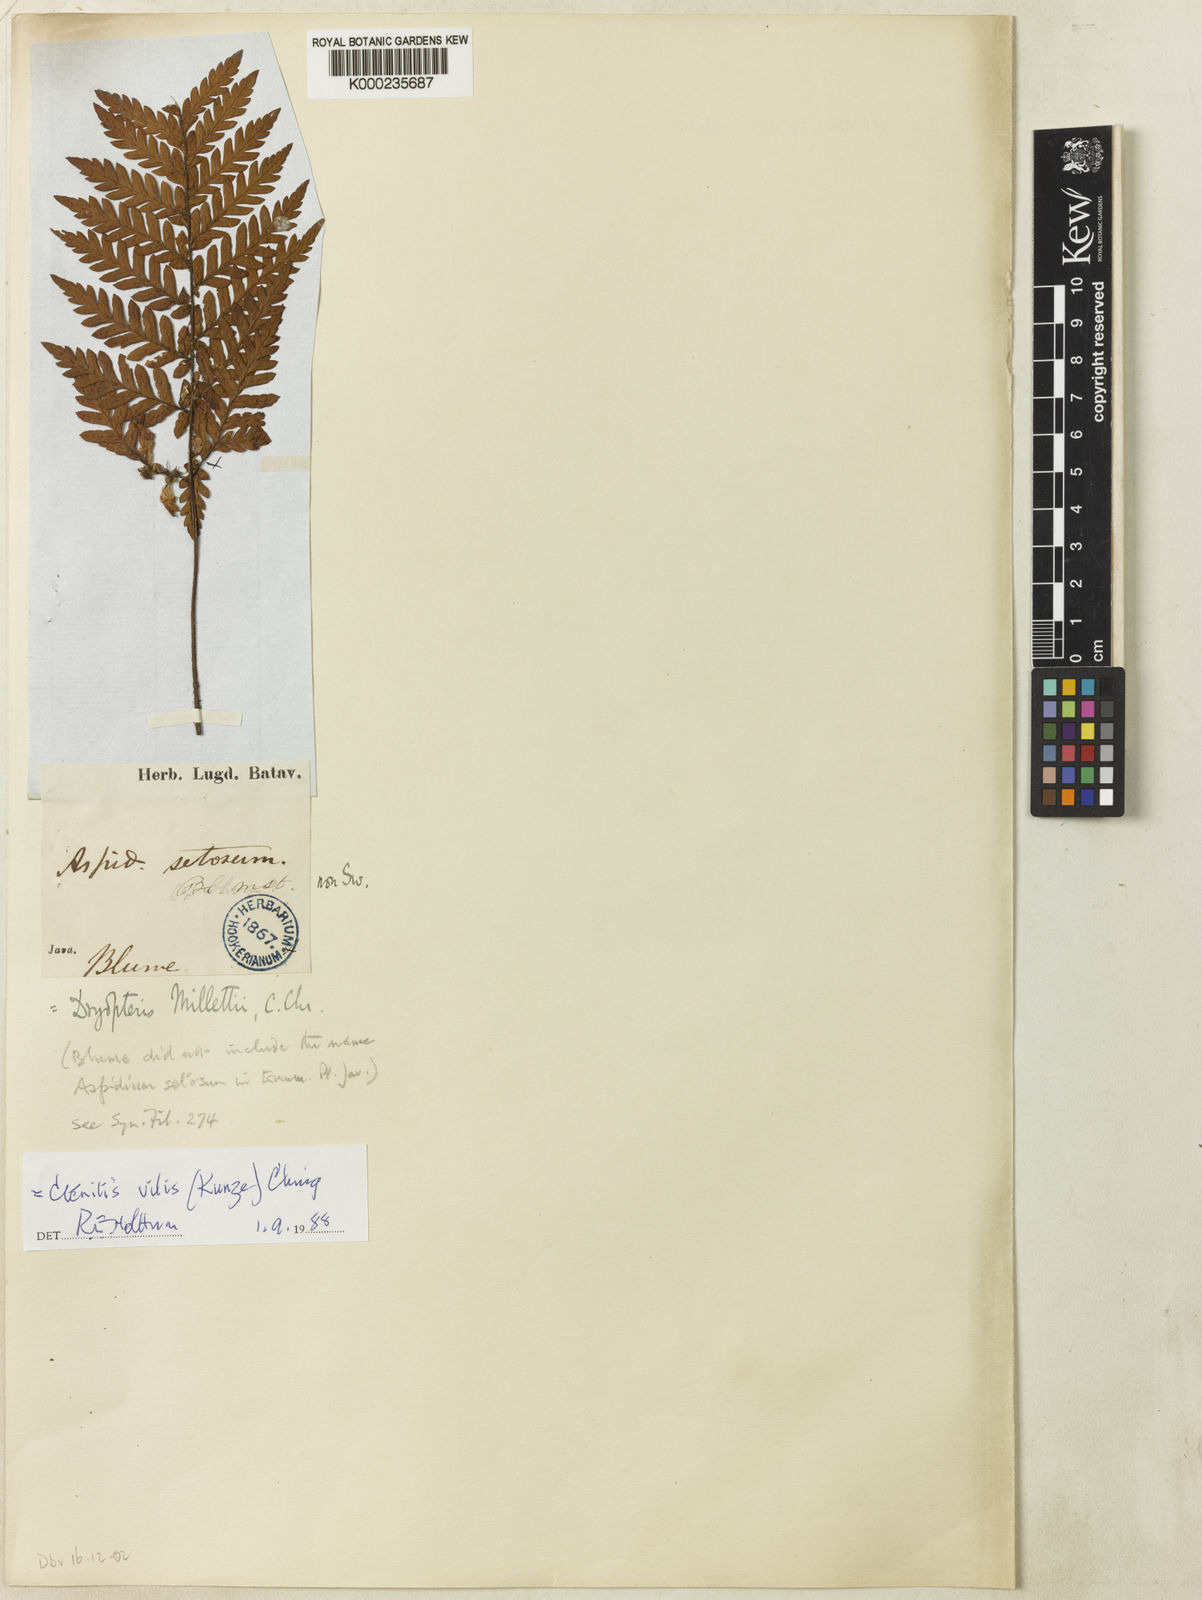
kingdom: Plantae
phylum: Tracheophyta
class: Polypodiopsida
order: Polypodiales
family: Dryopteridaceae
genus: Ctenitis
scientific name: Ctenitis vilis
